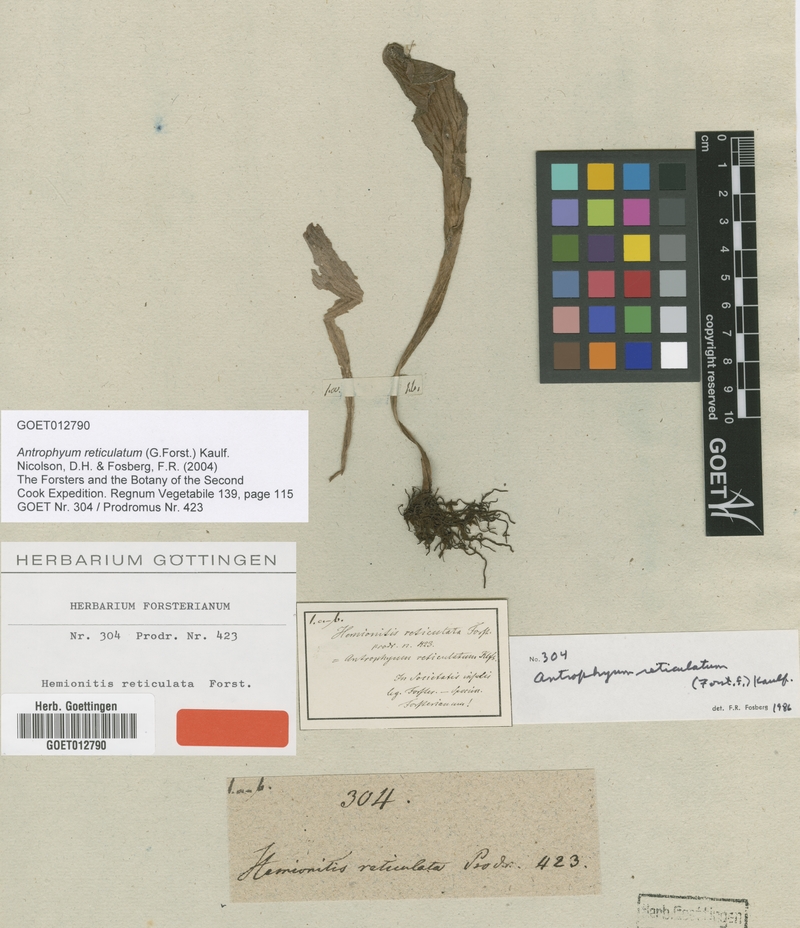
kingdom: Plantae
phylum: Tracheophyta
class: Polypodiopsida
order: Polypodiales
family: Pteridaceae
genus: Antrophyum
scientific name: Antrophyum reticulatum
